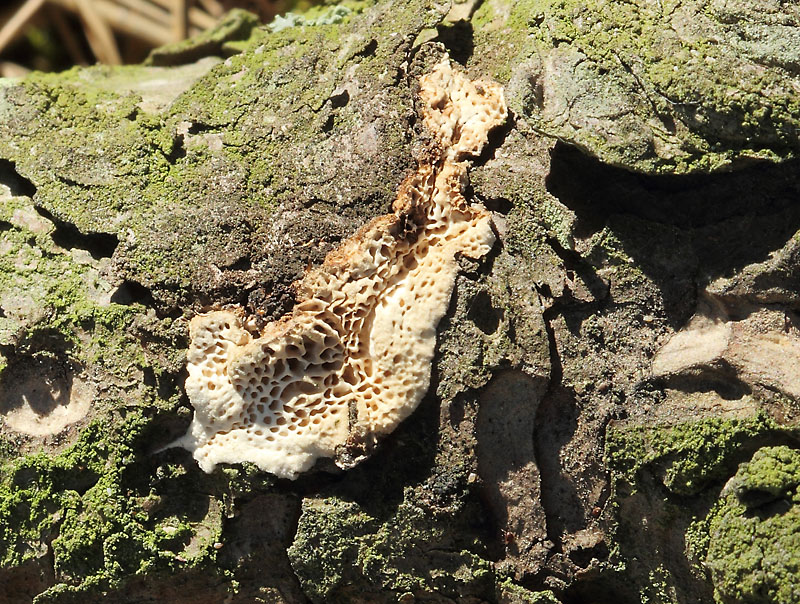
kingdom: Fungi
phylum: Basidiomycota
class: Agaricomycetes
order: Polyporales
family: Fomitopsidaceae
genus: Fomitopsis
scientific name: Fomitopsis
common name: fyrre-skiveporesvamp
